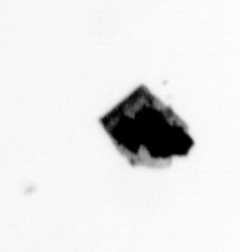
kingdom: Chromista
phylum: Ochrophyta
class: Bacillariophyceae
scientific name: Bacillariophyceae
